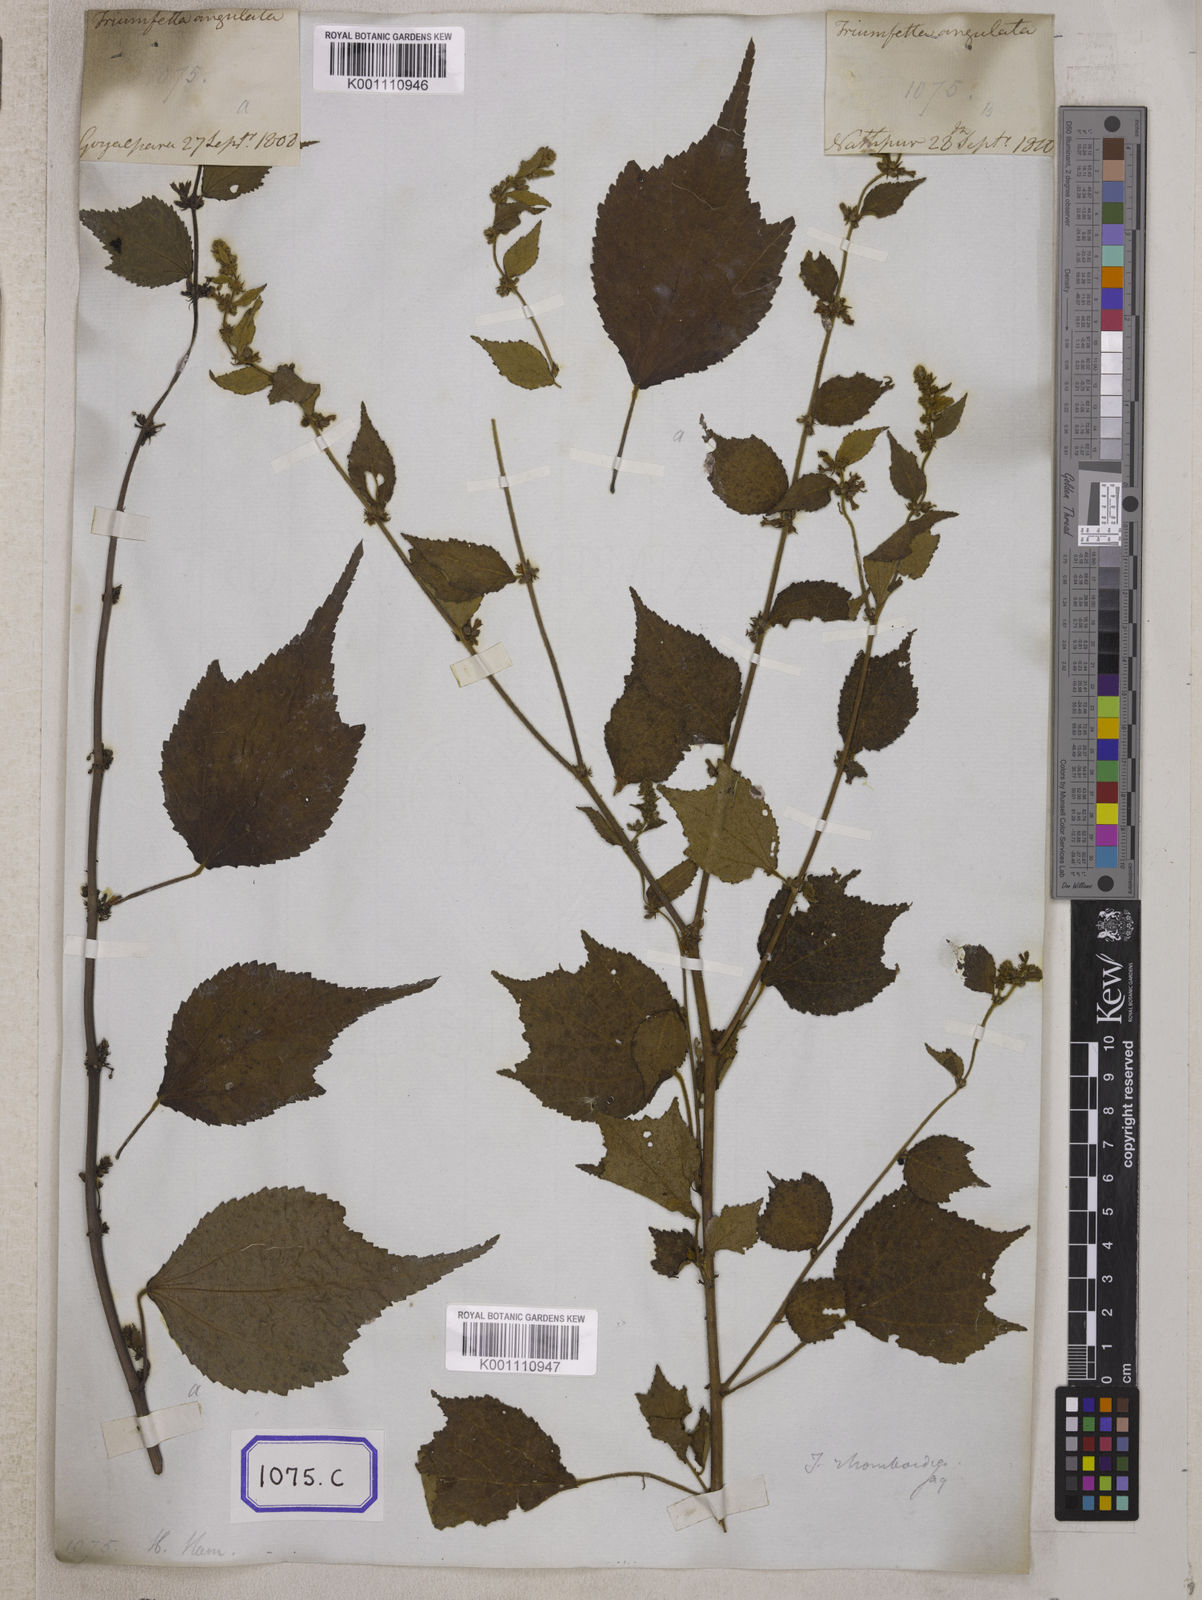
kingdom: Plantae
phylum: Tracheophyta
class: Magnoliopsida
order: Malvales
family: Malvaceae
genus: Triumfetta
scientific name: Triumfetta rhomboidea
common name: Diamond burbark
